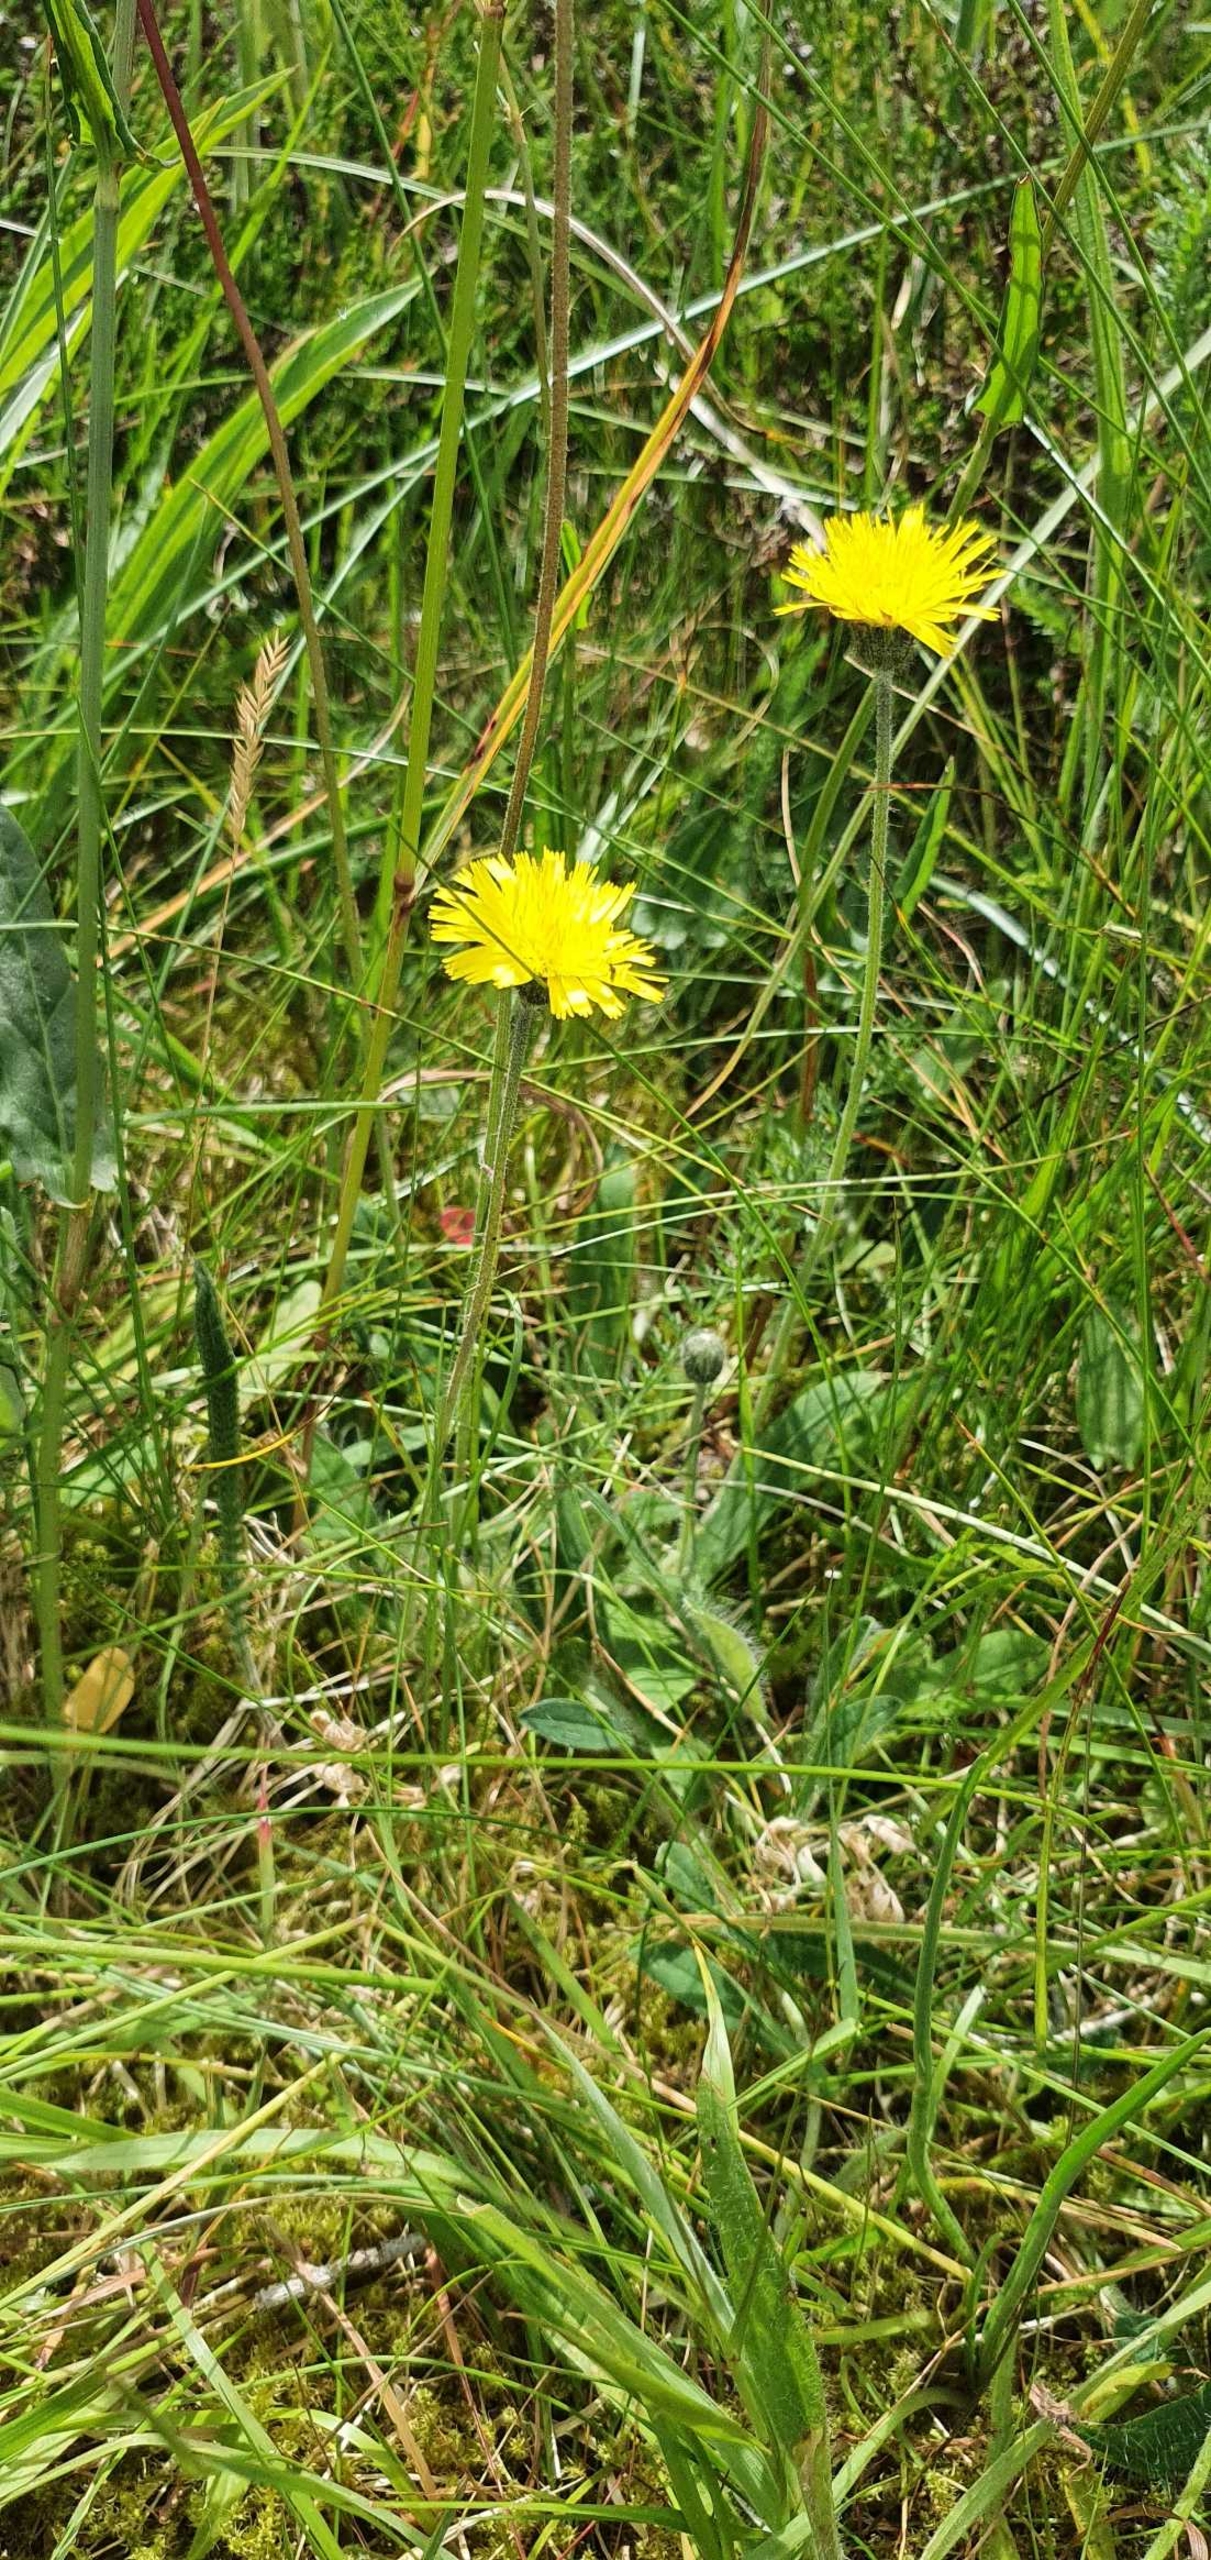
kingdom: Plantae
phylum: Tracheophyta
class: Magnoliopsida
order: Asterales
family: Asteraceae
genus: Pilosella
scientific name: Pilosella officinarum
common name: Håret høgeurt
